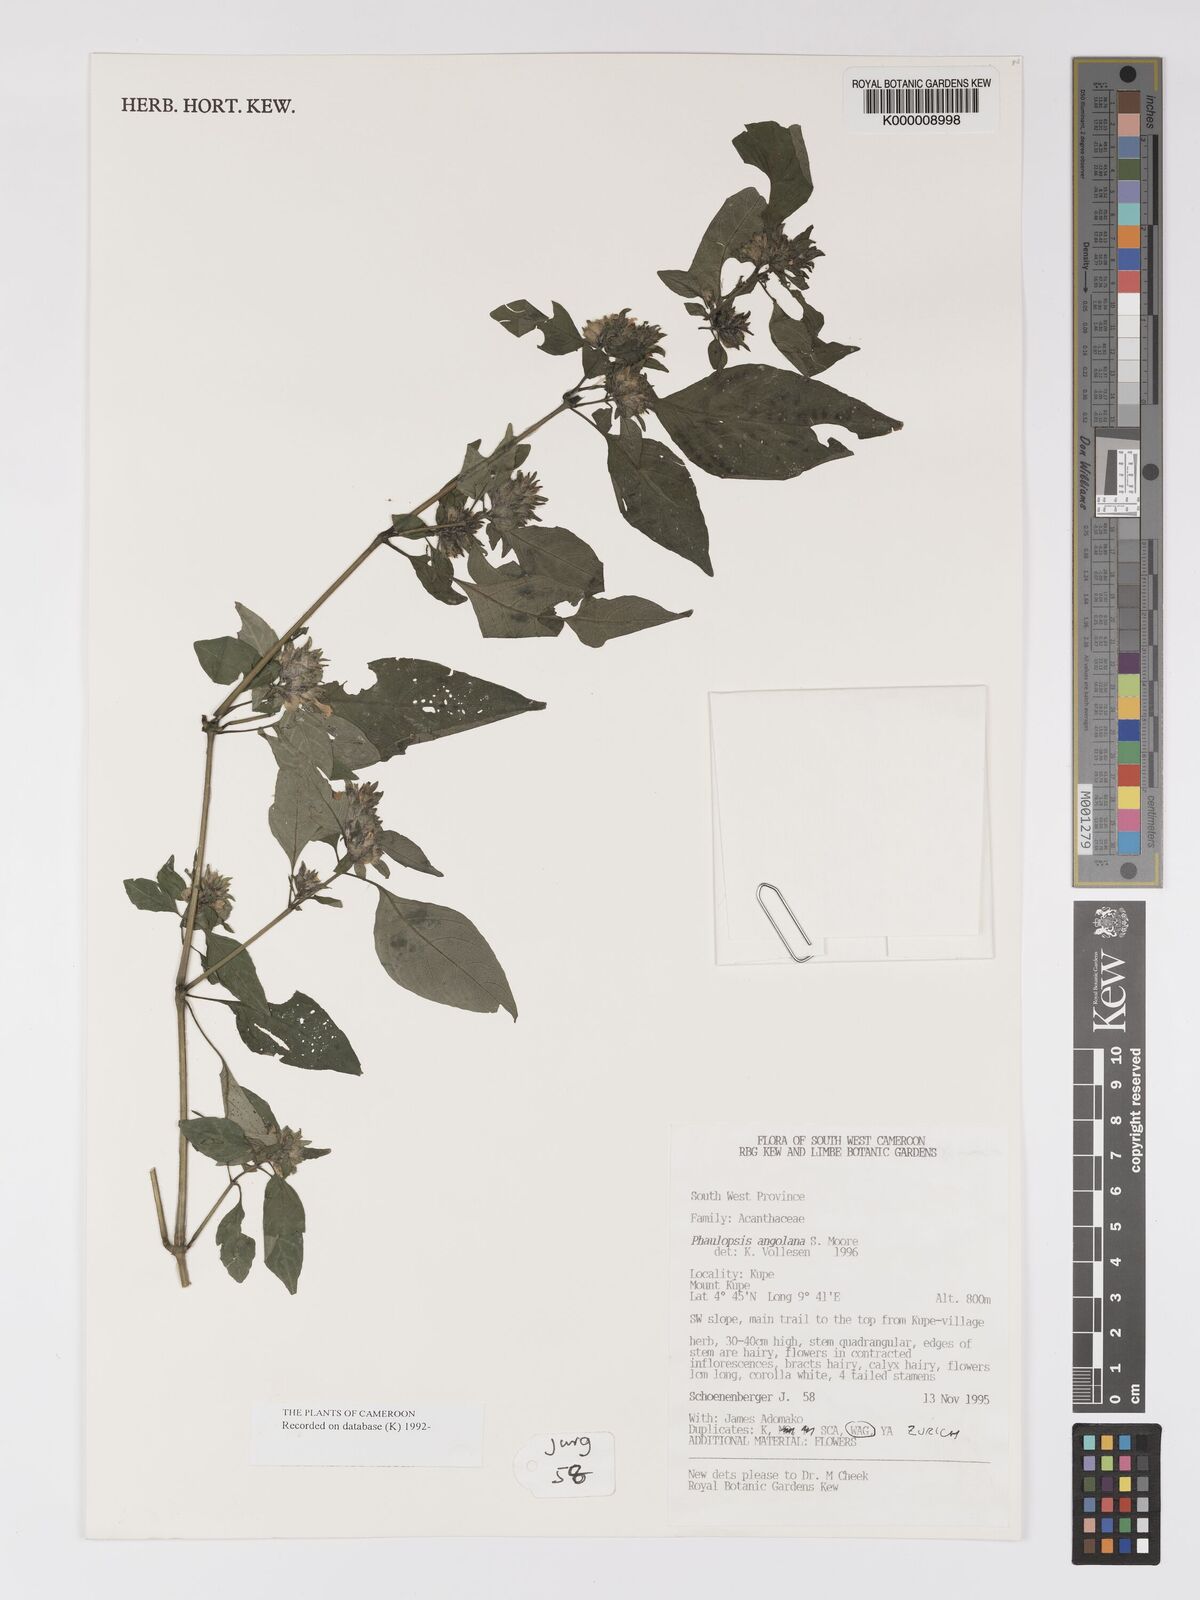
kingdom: Plantae
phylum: Tracheophyta
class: Magnoliopsida
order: Lamiales
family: Acanthaceae
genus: Phaulopsis
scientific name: Phaulopsis angolana
